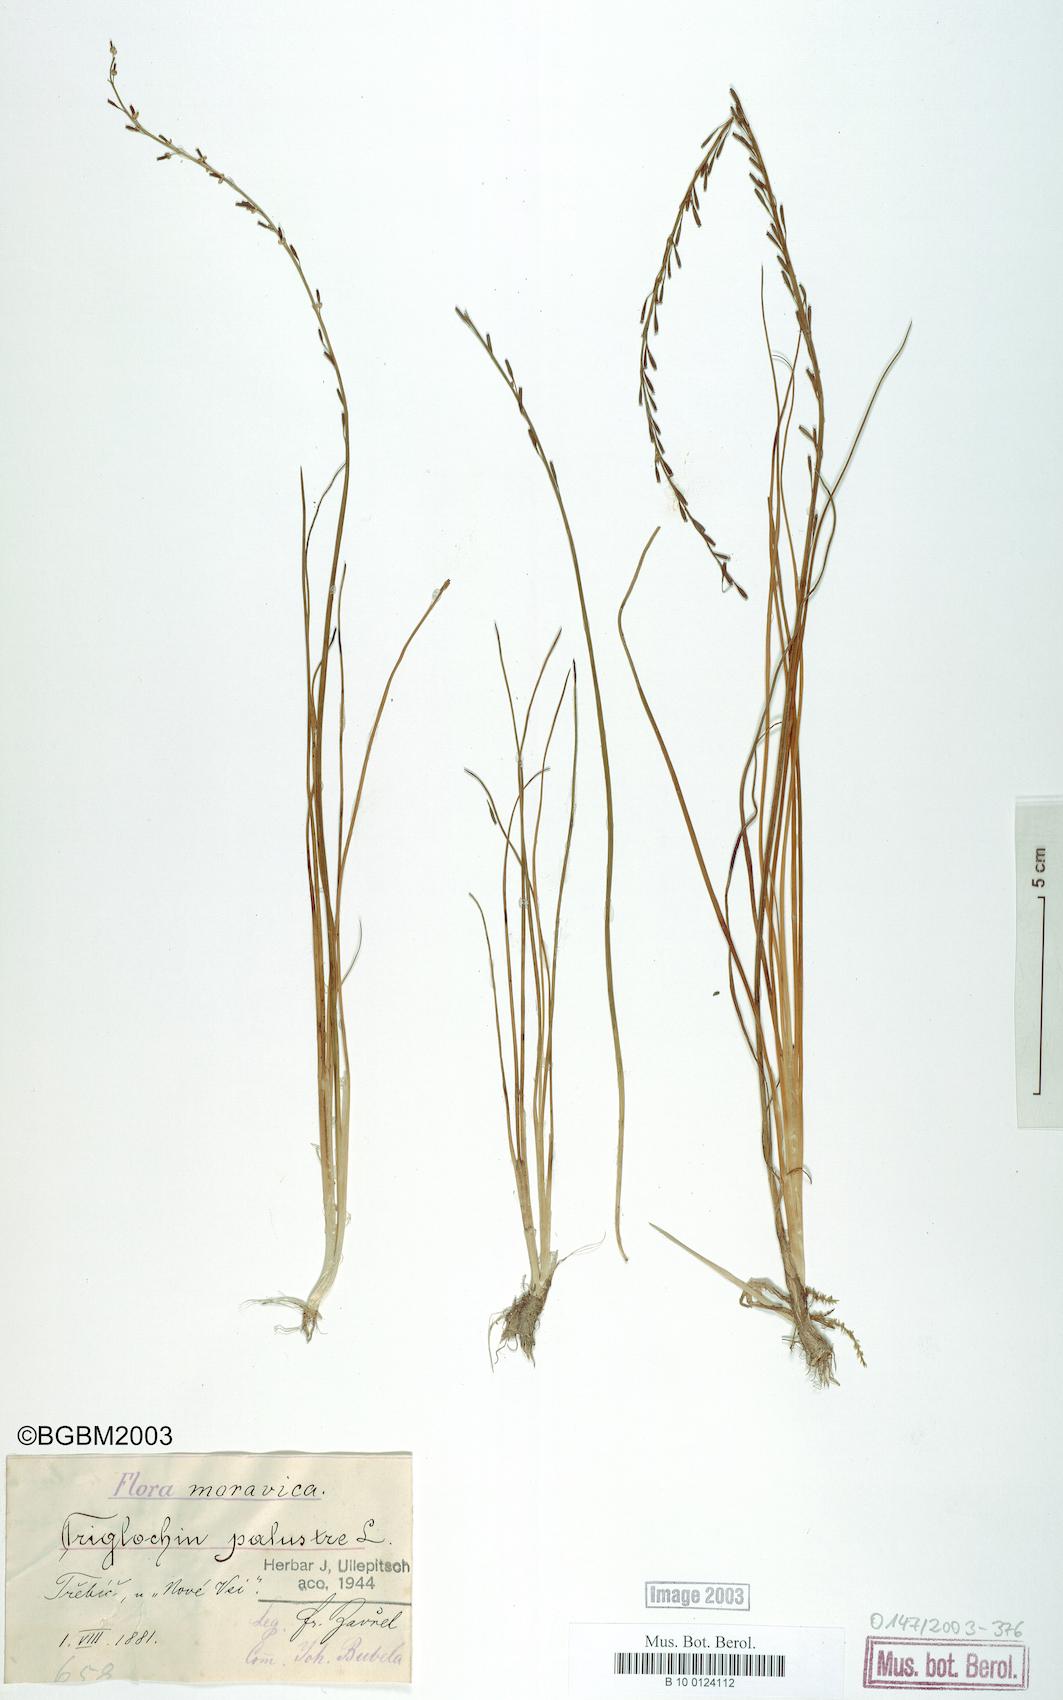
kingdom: Plantae
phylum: Tracheophyta
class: Liliopsida
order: Alismatales
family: Juncaginaceae
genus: Triglochin
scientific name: Triglochin palustris
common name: Marsh arrowgrass
